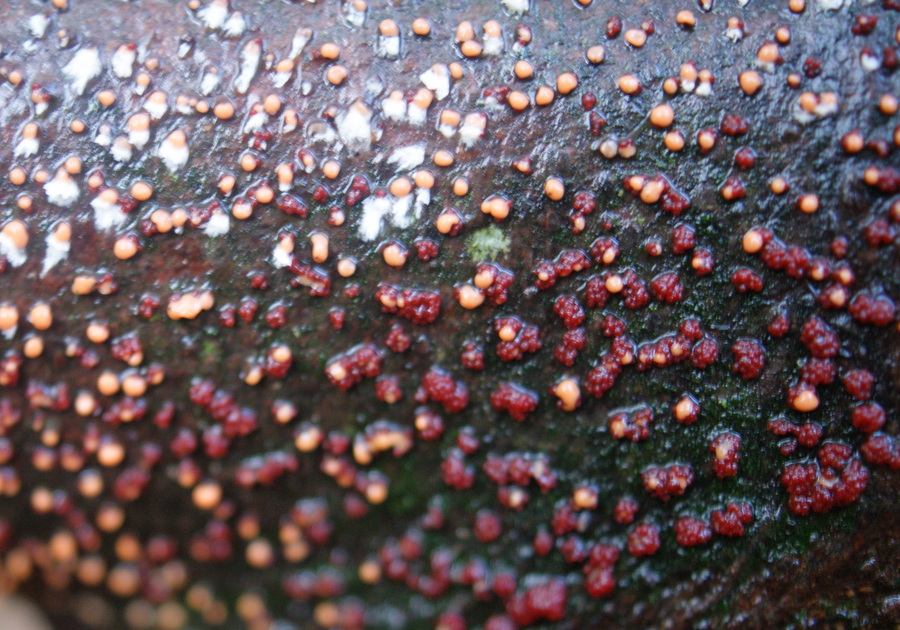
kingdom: Fungi
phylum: Ascomycota
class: Sordariomycetes
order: Hypocreales
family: Nectriaceae
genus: Nectria
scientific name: Nectria cinnabarina
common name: almindelig cinnobersvamp
